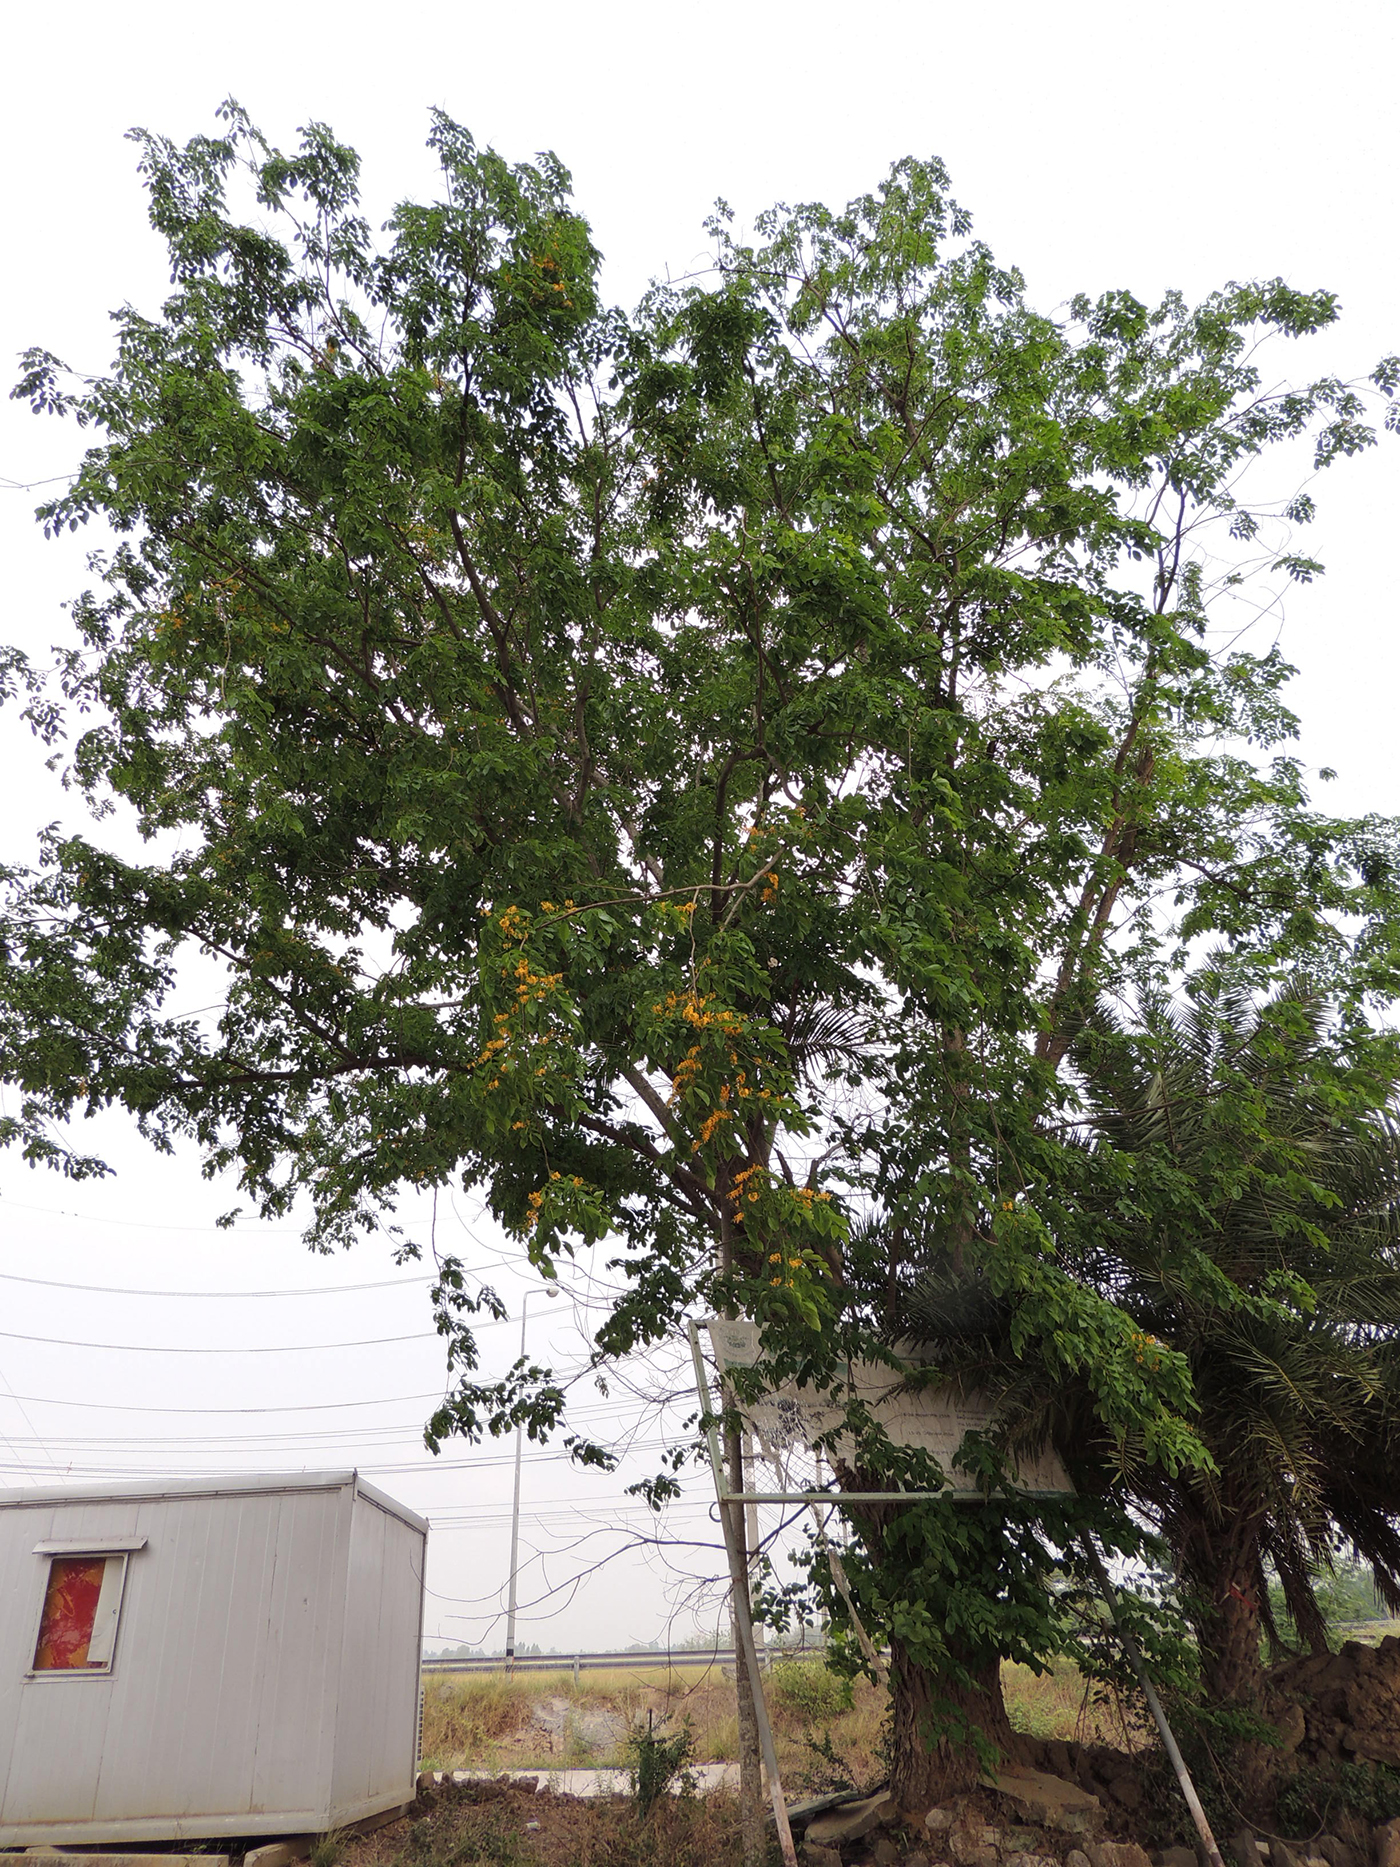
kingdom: Plantae
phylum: Tracheophyta
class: Magnoliopsida
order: Fabales
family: Fabaceae
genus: Pterocarpus
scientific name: Pterocarpus macrocarpus
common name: Burma padauk
